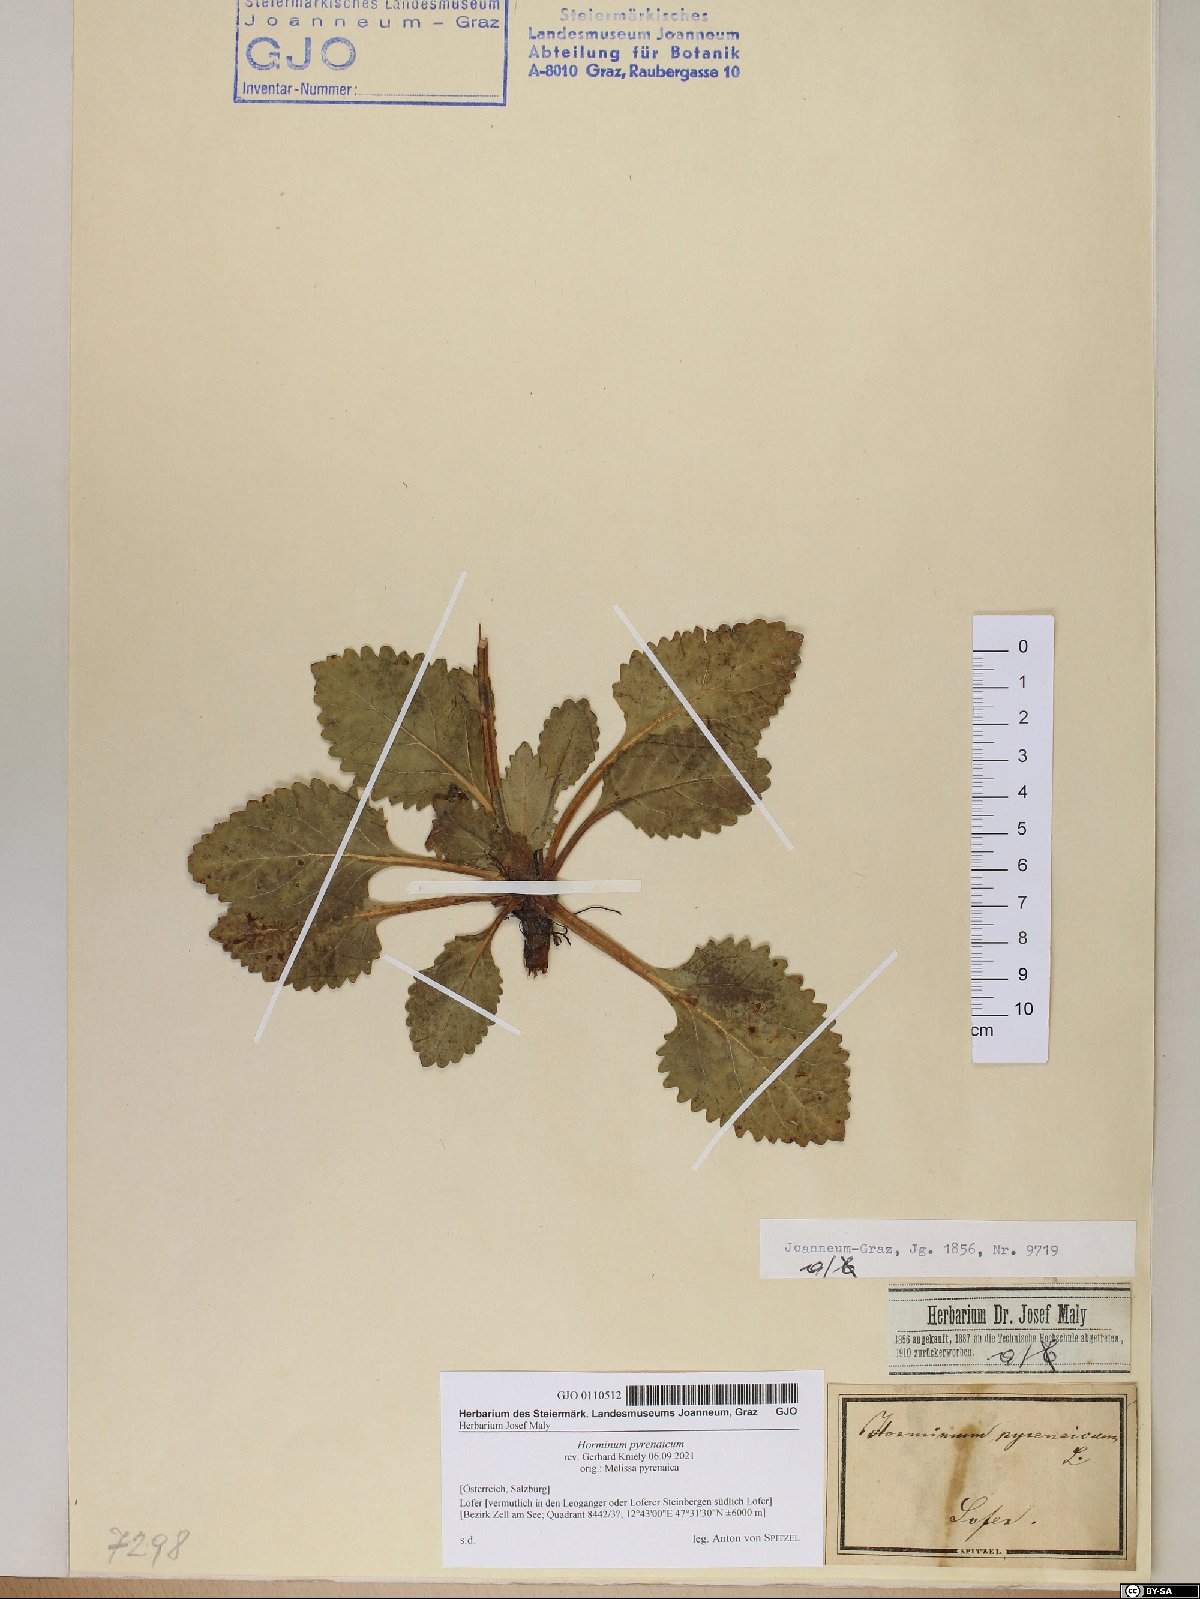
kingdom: Plantae
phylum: Tracheophyta
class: Magnoliopsida
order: Lamiales
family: Lamiaceae
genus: Horminum
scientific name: Horminum pyrenaicum
